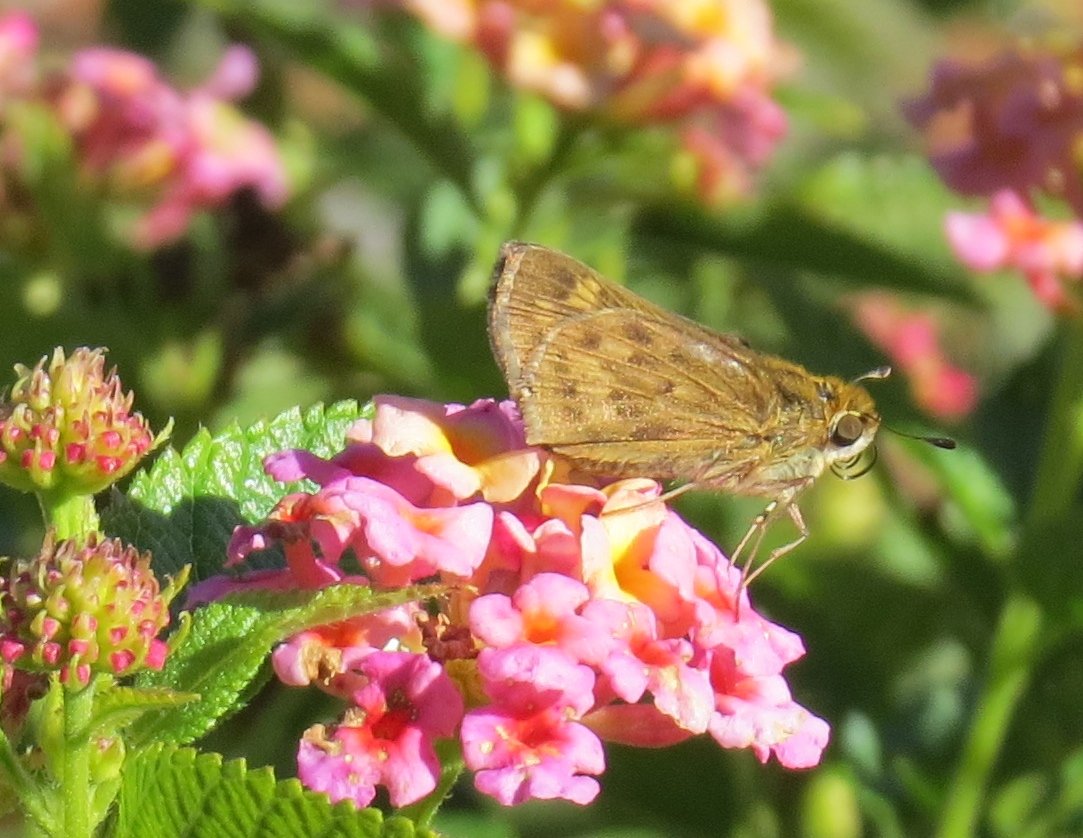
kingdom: Animalia
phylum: Arthropoda
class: Insecta
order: Lepidoptera
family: Hesperiidae
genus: Hylephila
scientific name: Hylephila phyleus
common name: Fiery Skipper
